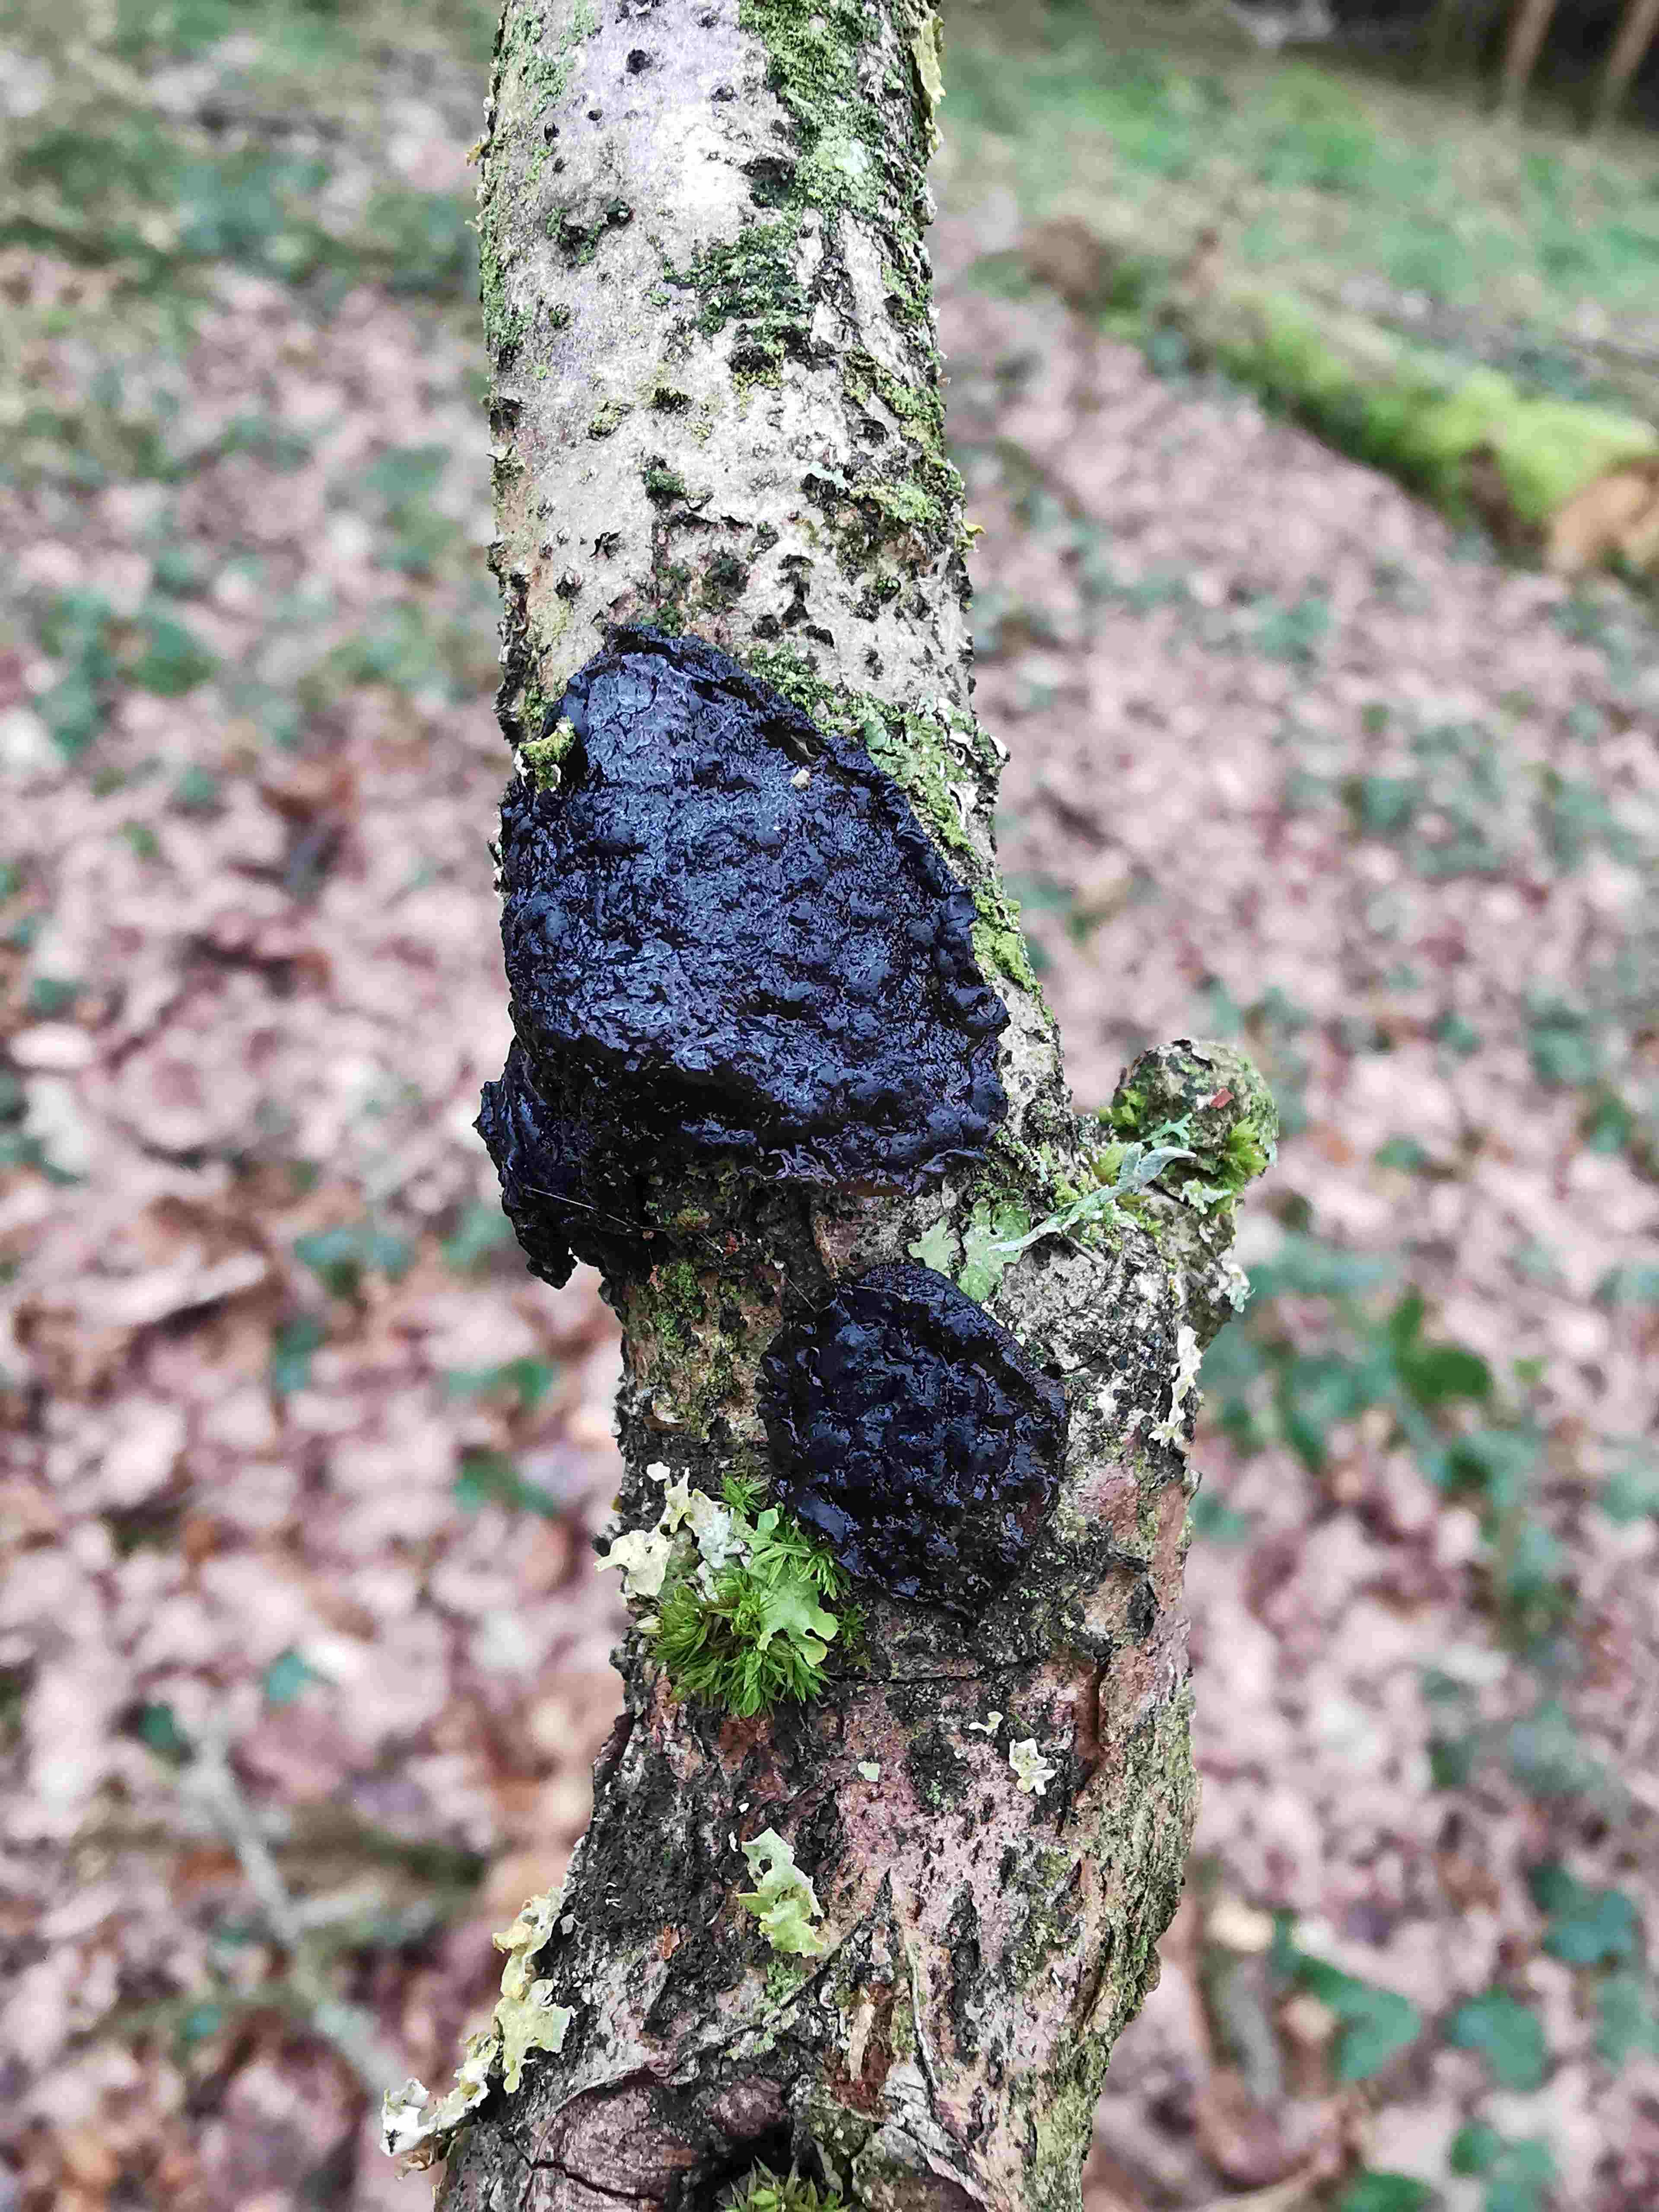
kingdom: Fungi
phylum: Basidiomycota
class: Agaricomycetes
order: Auriculariales
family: Auriculariaceae
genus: Exidia
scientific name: Exidia glandulosa
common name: ege-bævretop
